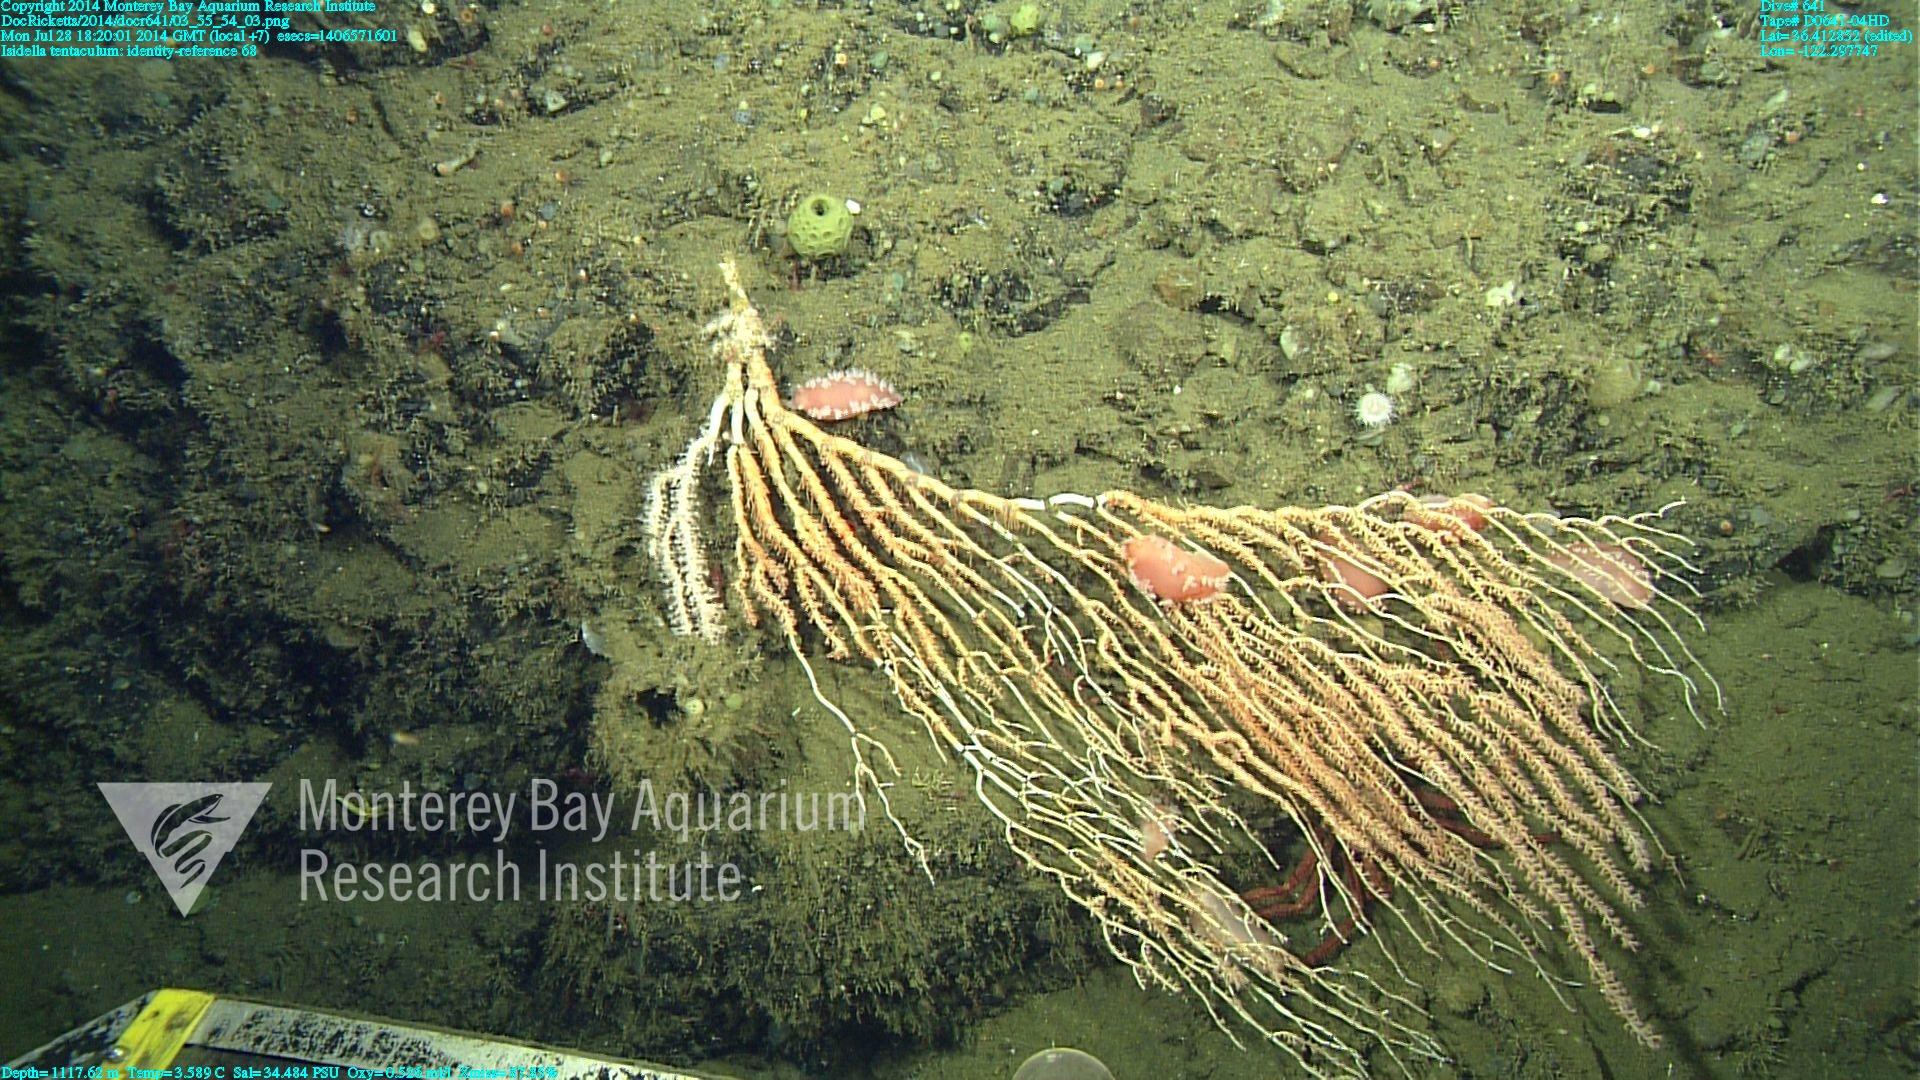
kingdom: Animalia
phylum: Cnidaria
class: Anthozoa
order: Scleralcyonacea
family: Keratoisididae
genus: Isidella
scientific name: Isidella tentaculum
